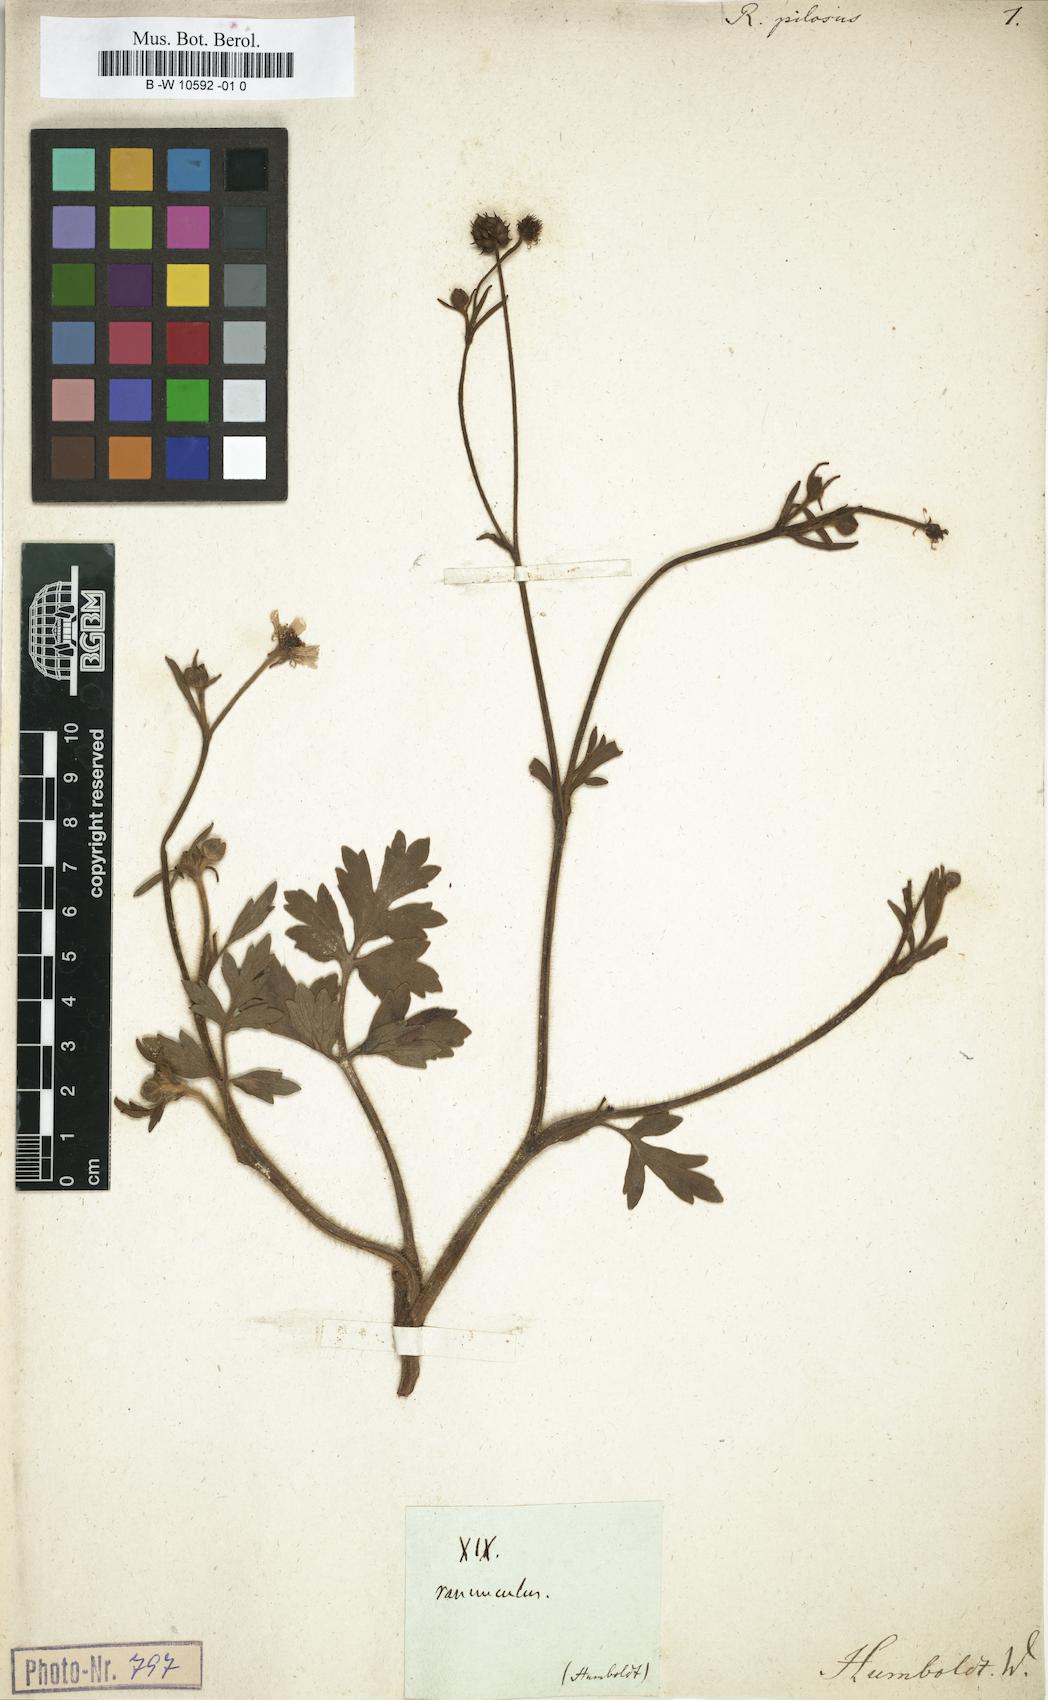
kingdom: Plantae
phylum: Tracheophyta
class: Magnoliopsida
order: Ranunculales
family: Ranunculaceae
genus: Ranunculus
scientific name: Ranunculus pilosus
